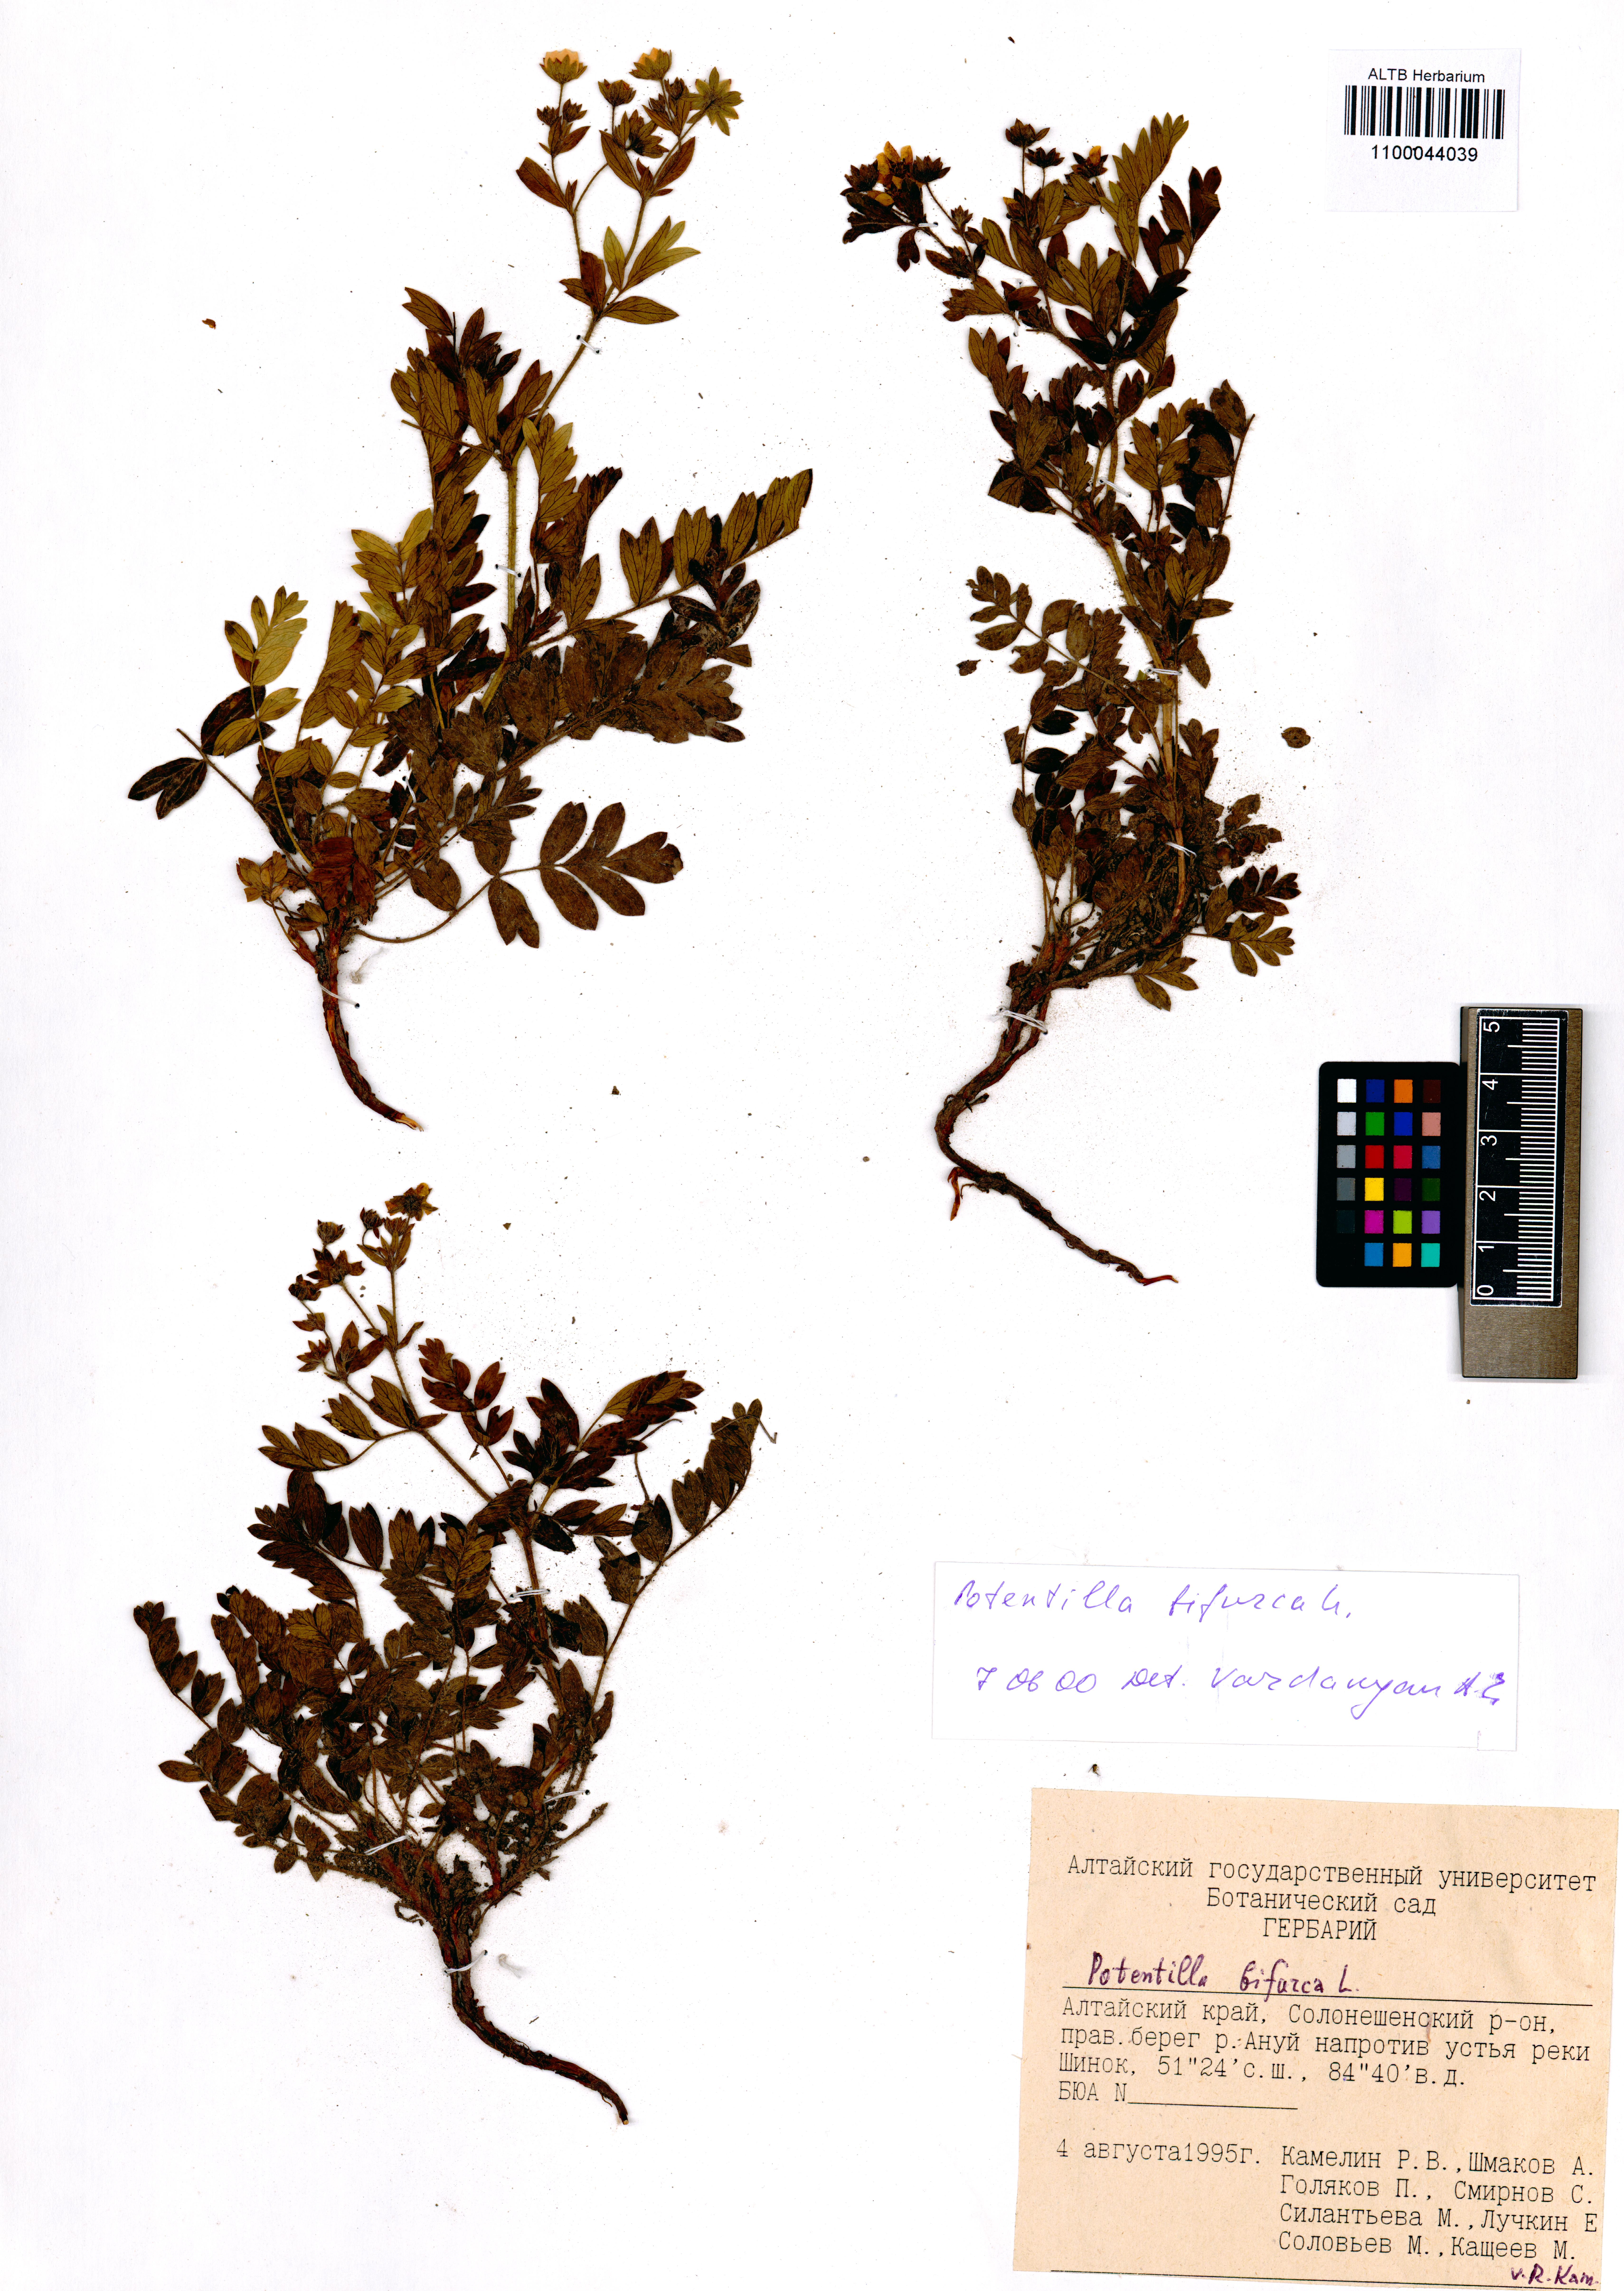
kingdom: Plantae
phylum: Tracheophyta
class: Magnoliopsida
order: Rosales
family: Rosaceae
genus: Sibbaldianthe
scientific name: Sibbaldianthe bifurca
